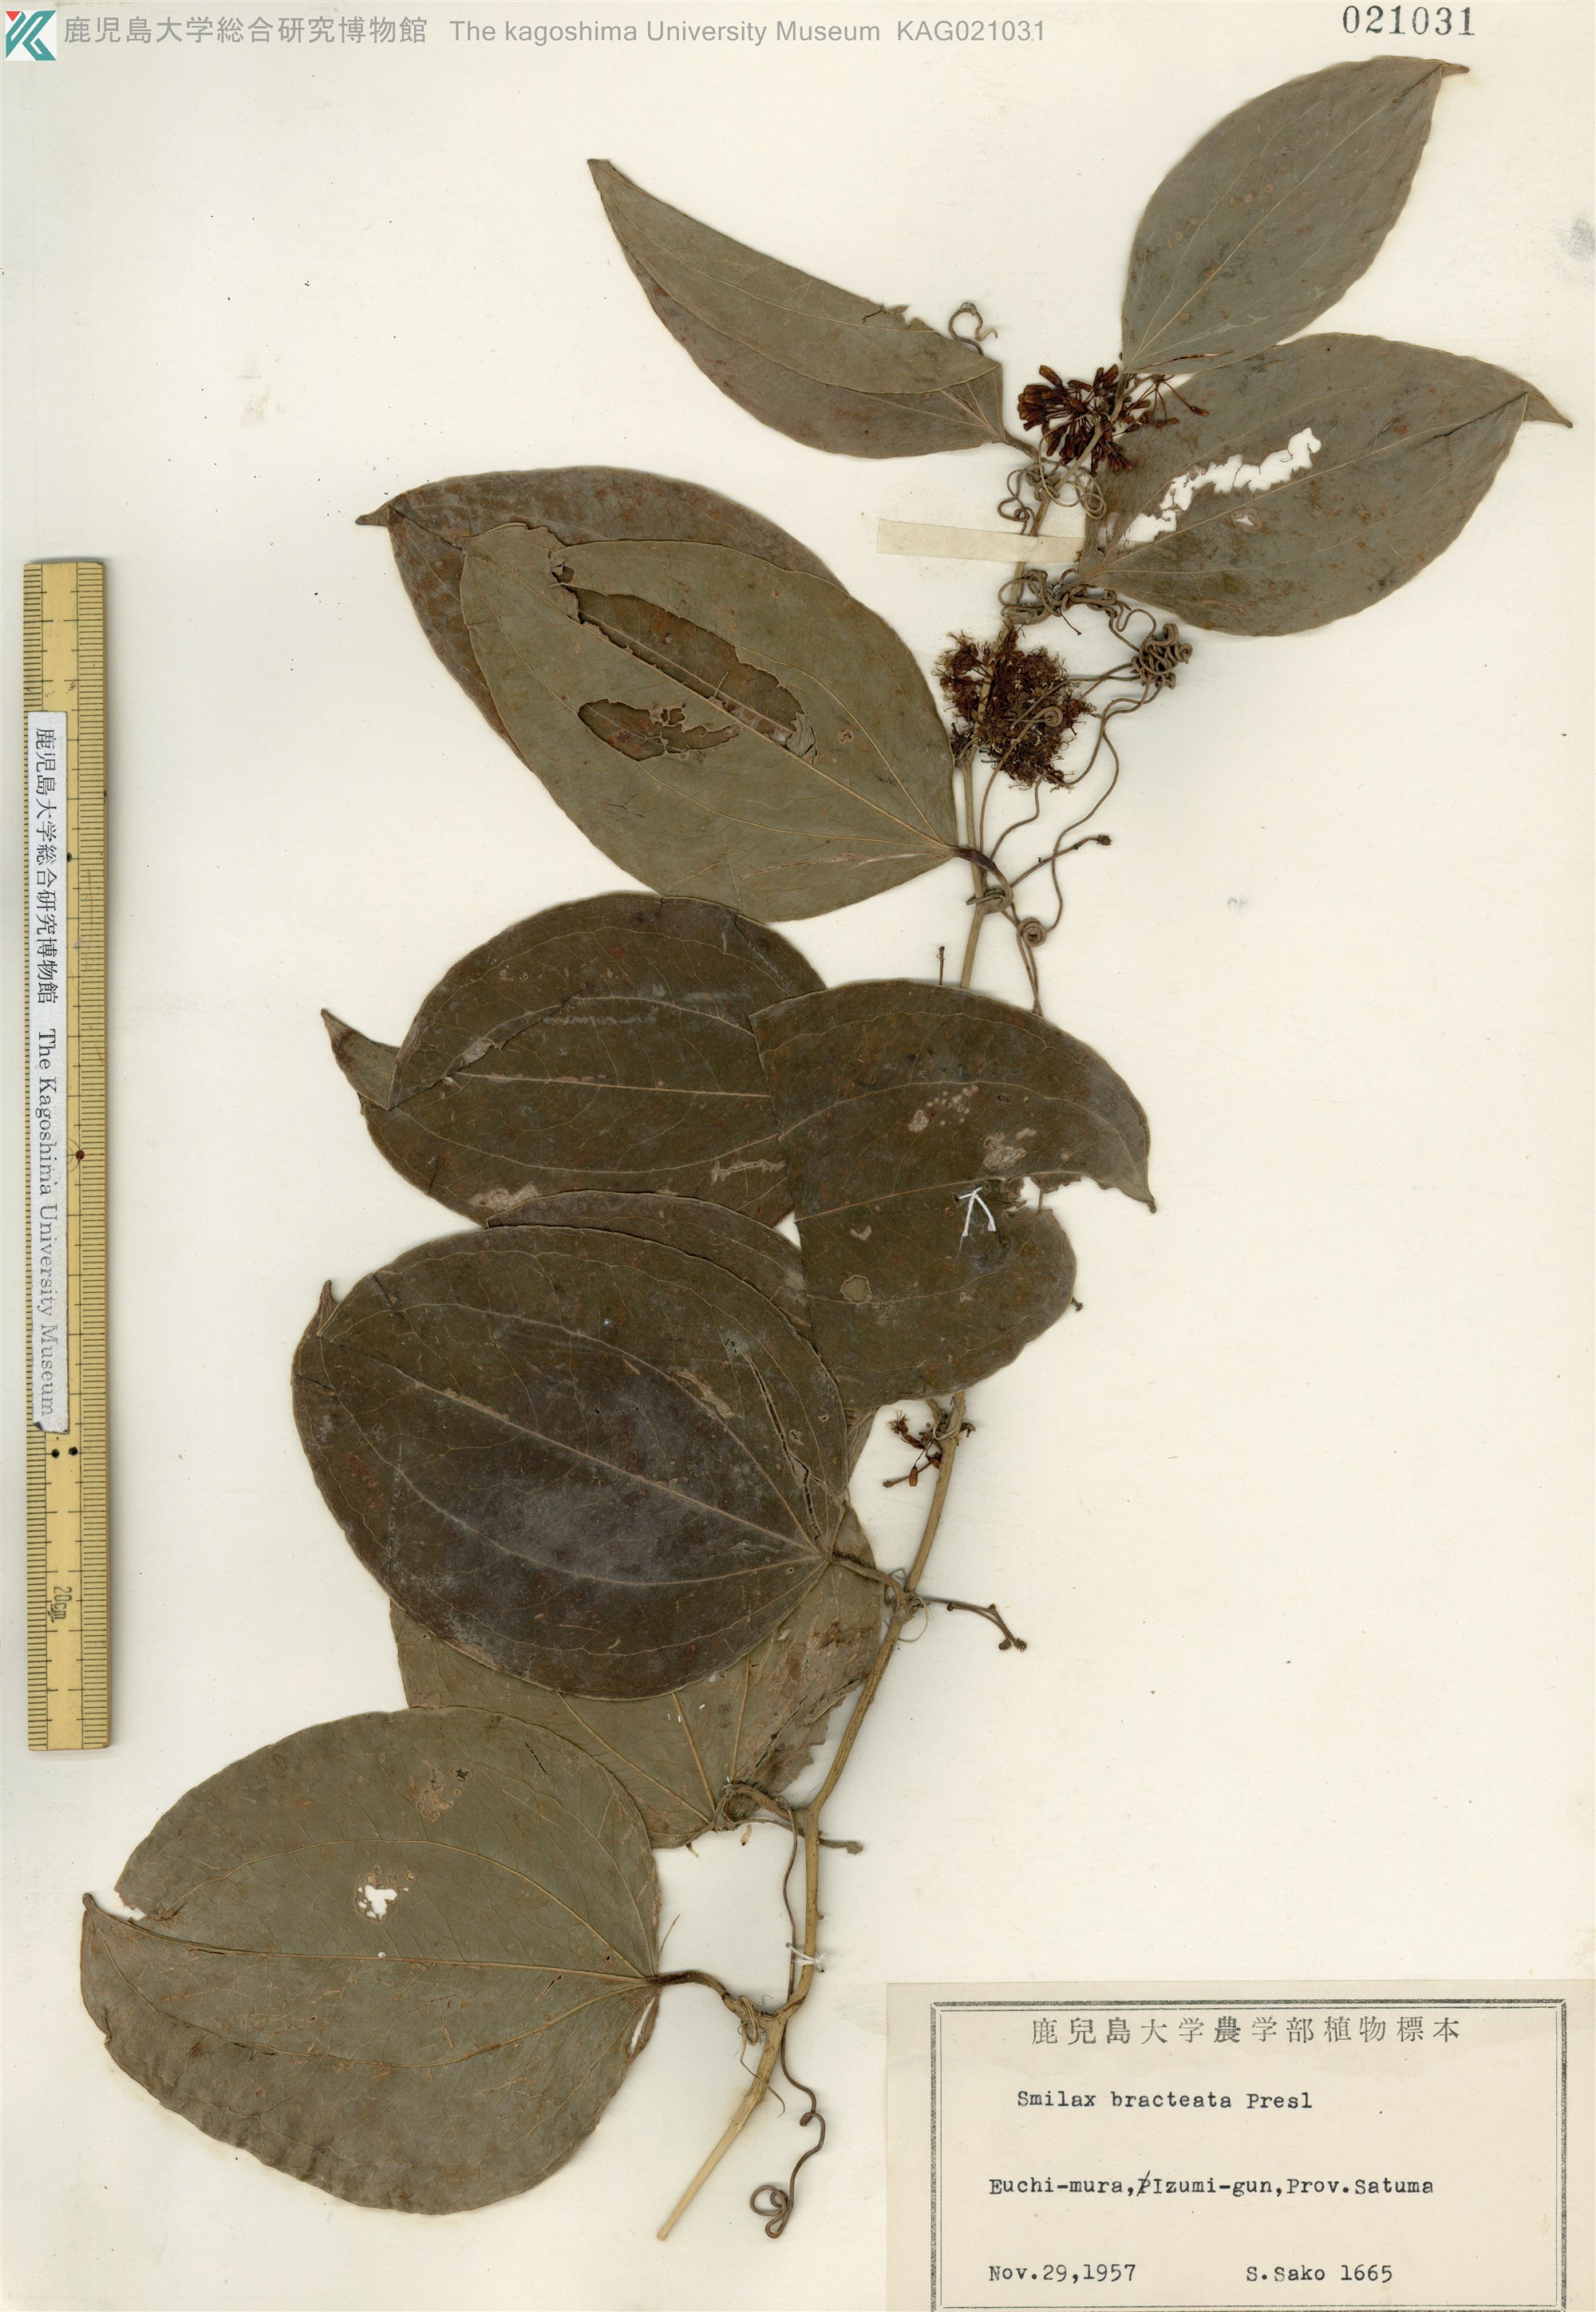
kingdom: Plantae
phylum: Tracheophyta
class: Liliopsida
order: Liliales
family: Smilacaceae
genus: Smilax
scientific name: Smilax bracteata
